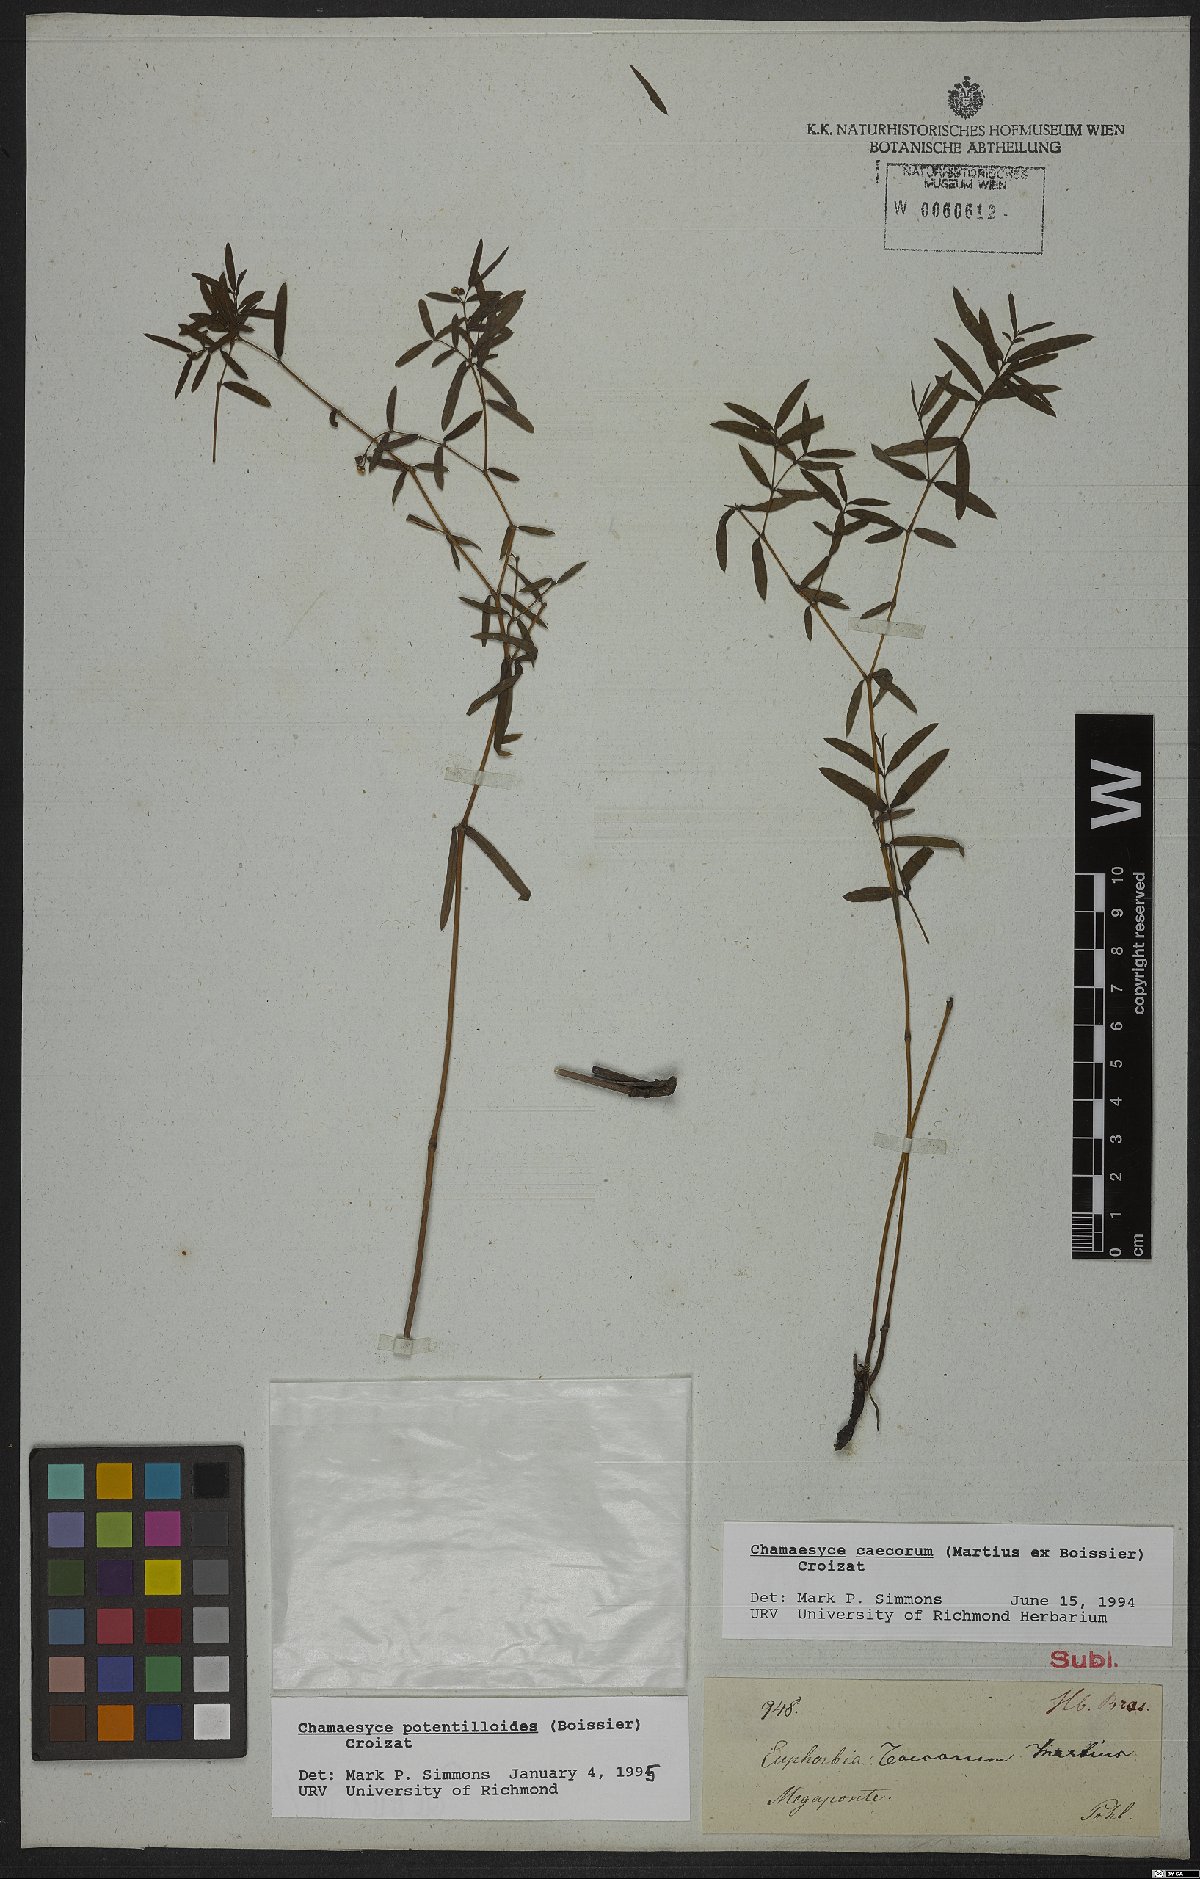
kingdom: Plantae
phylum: Tracheophyta
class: Magnoliopsida
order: Malpighiales
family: Euphorbiaceae
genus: Euphorbia
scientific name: Euphorbia potentilloides
